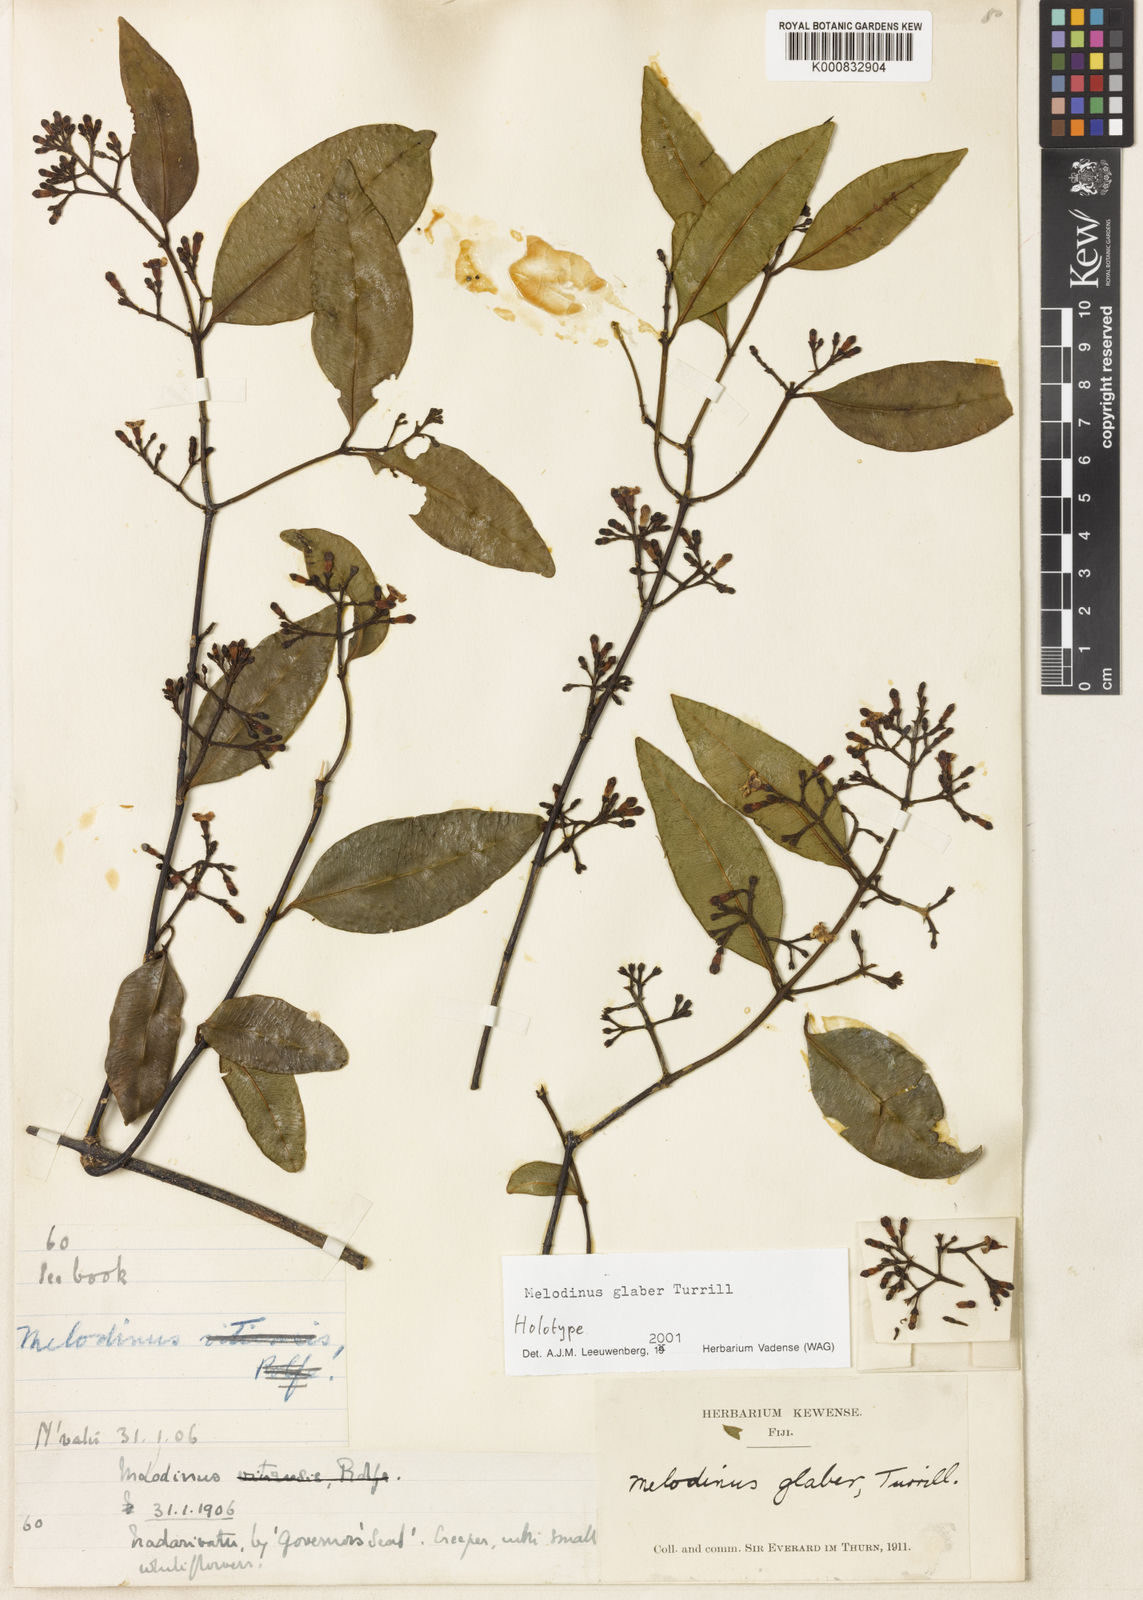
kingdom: Plantae
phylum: Tracheophyta
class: Magnoliopsida
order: Gentianales
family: Apocynaceae
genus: Melodinus
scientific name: Melodinus glaber
